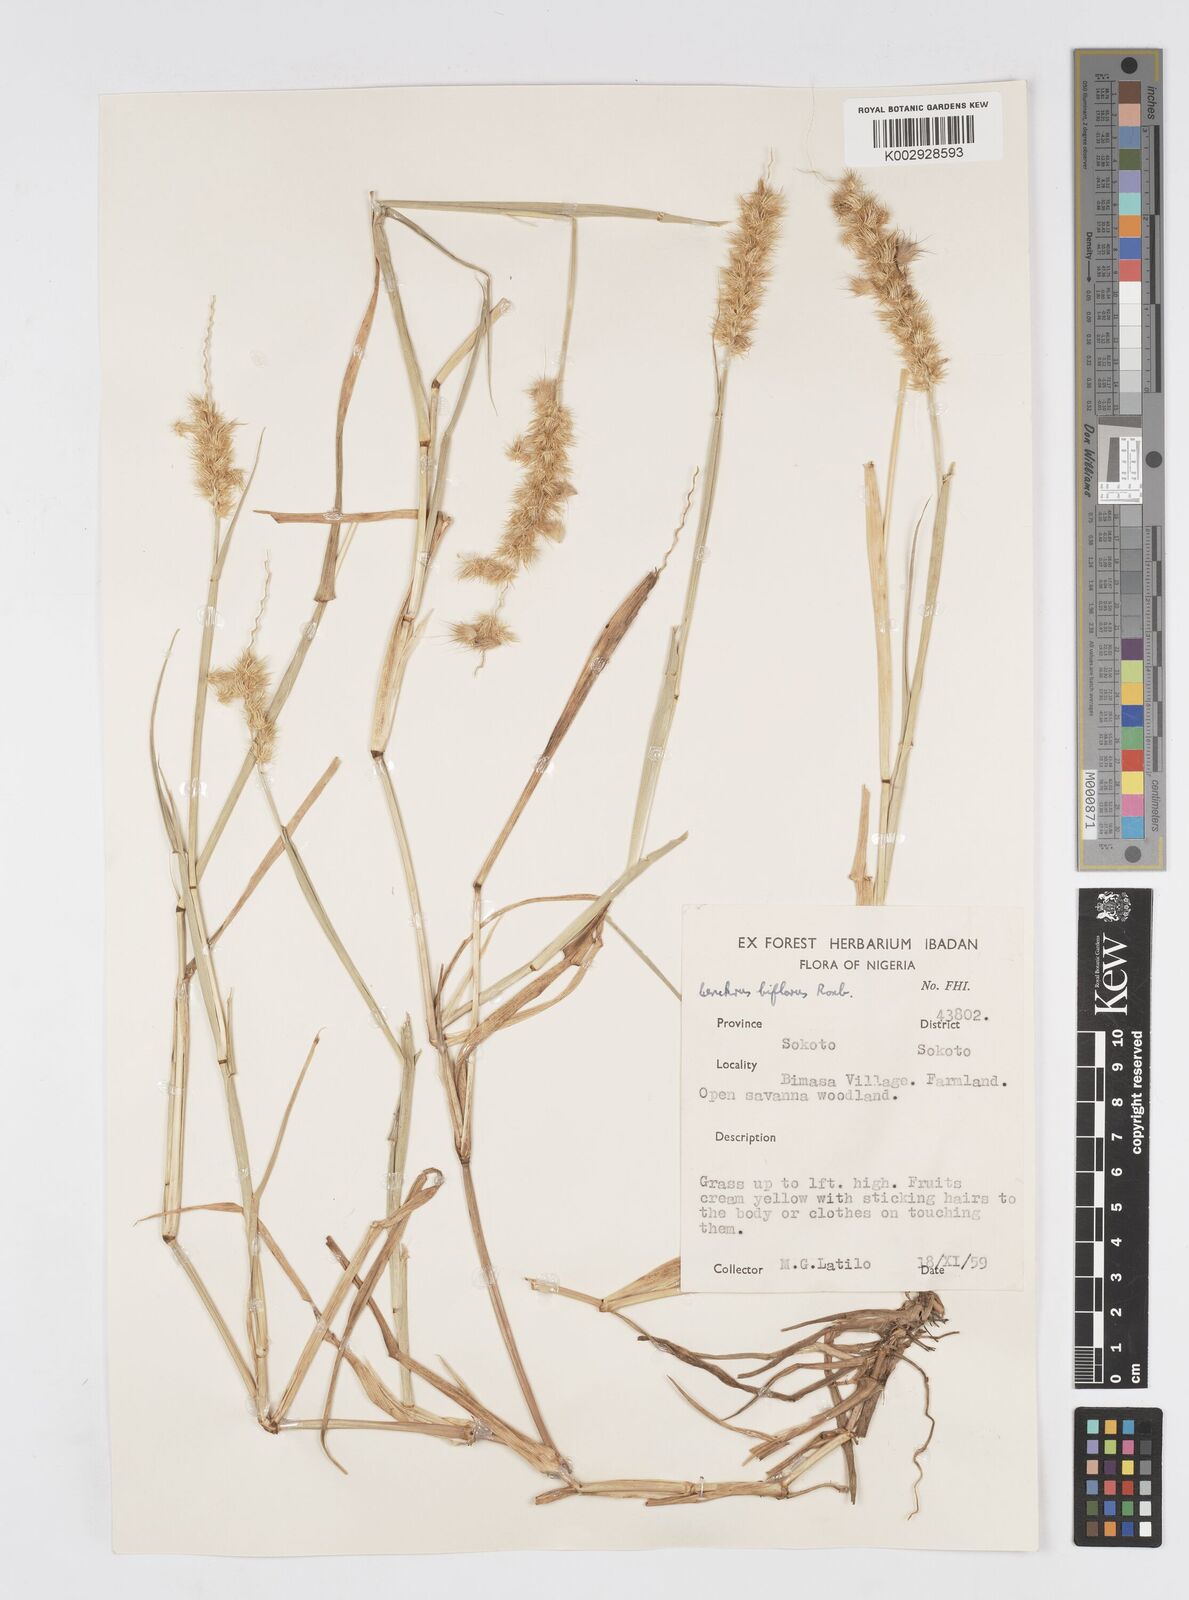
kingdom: Plantae
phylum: Tracheophyta
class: Liliopsida
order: Poales
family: Poaceae
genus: Cenchrus
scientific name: Cenchrus biflorus
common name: Indian sandbur
